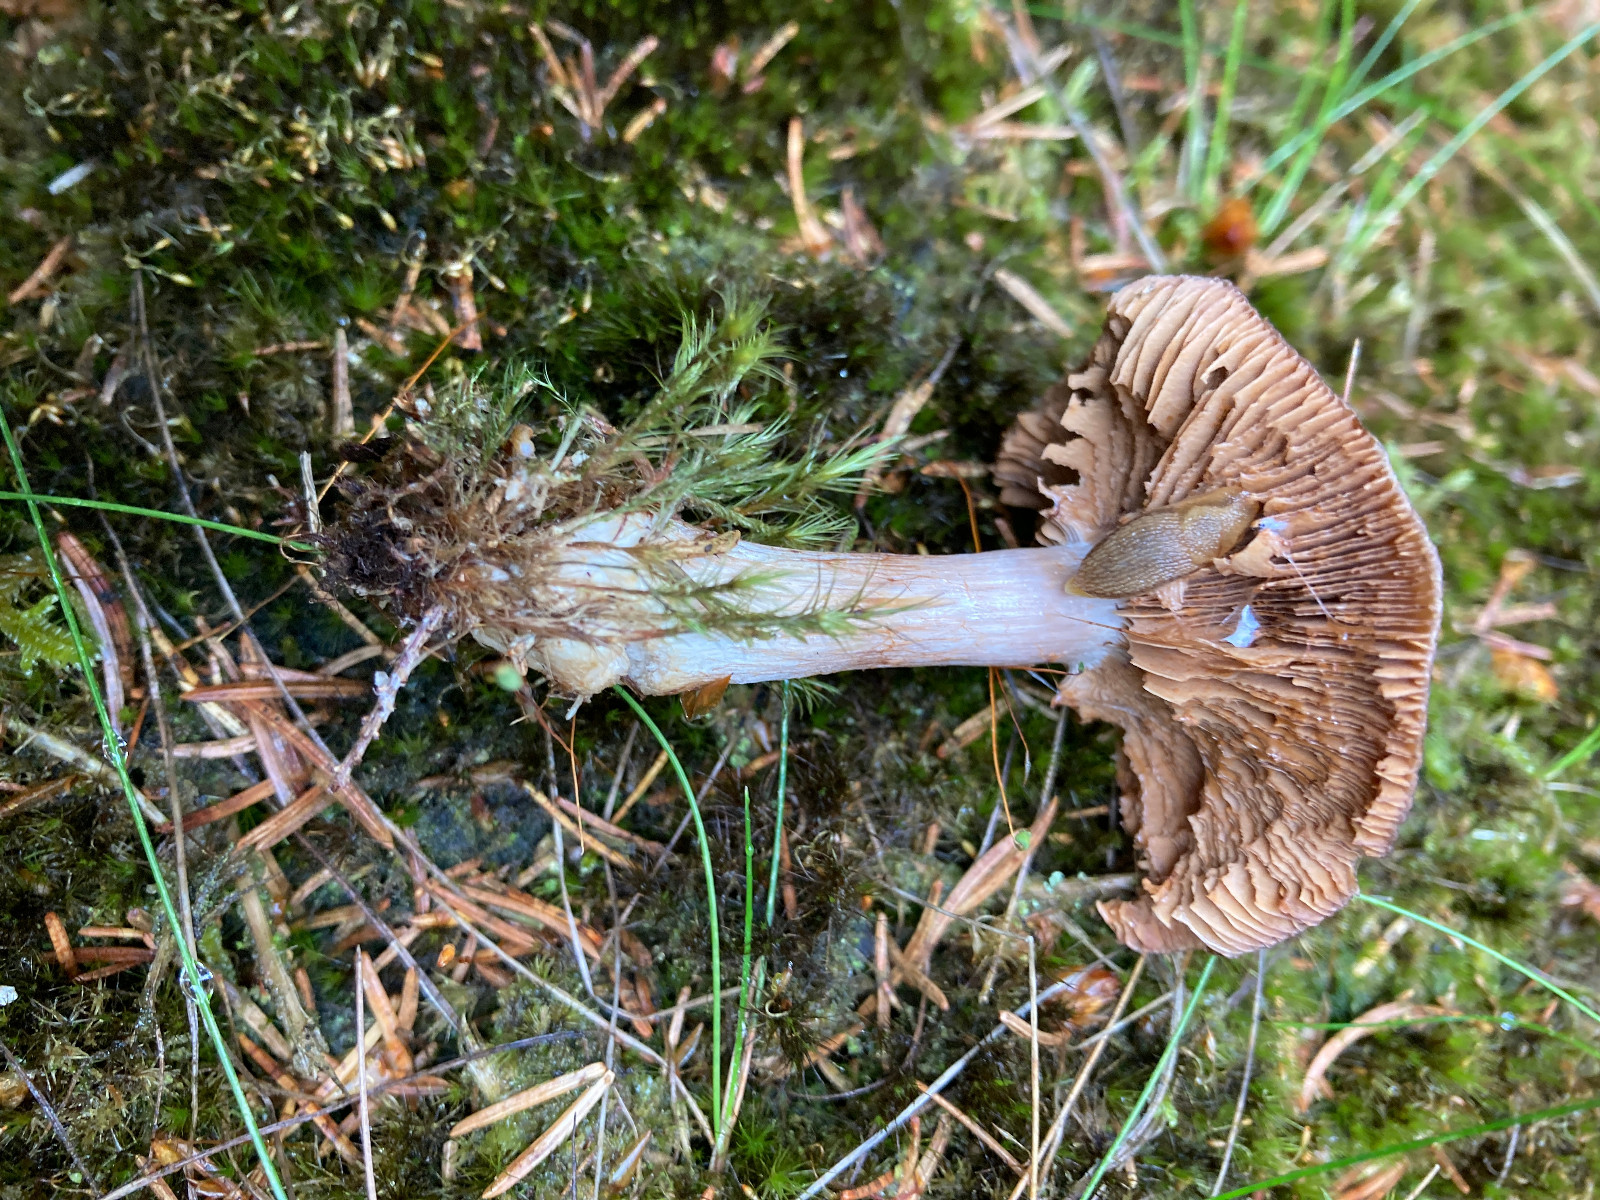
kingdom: Fungi
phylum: Basidiomycota
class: Agaricomycetes
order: Agaricales
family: Cortinariaceae
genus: Thaxterogaster
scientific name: Thaxterogaster sphagnophilus
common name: vandplettet slørhat
